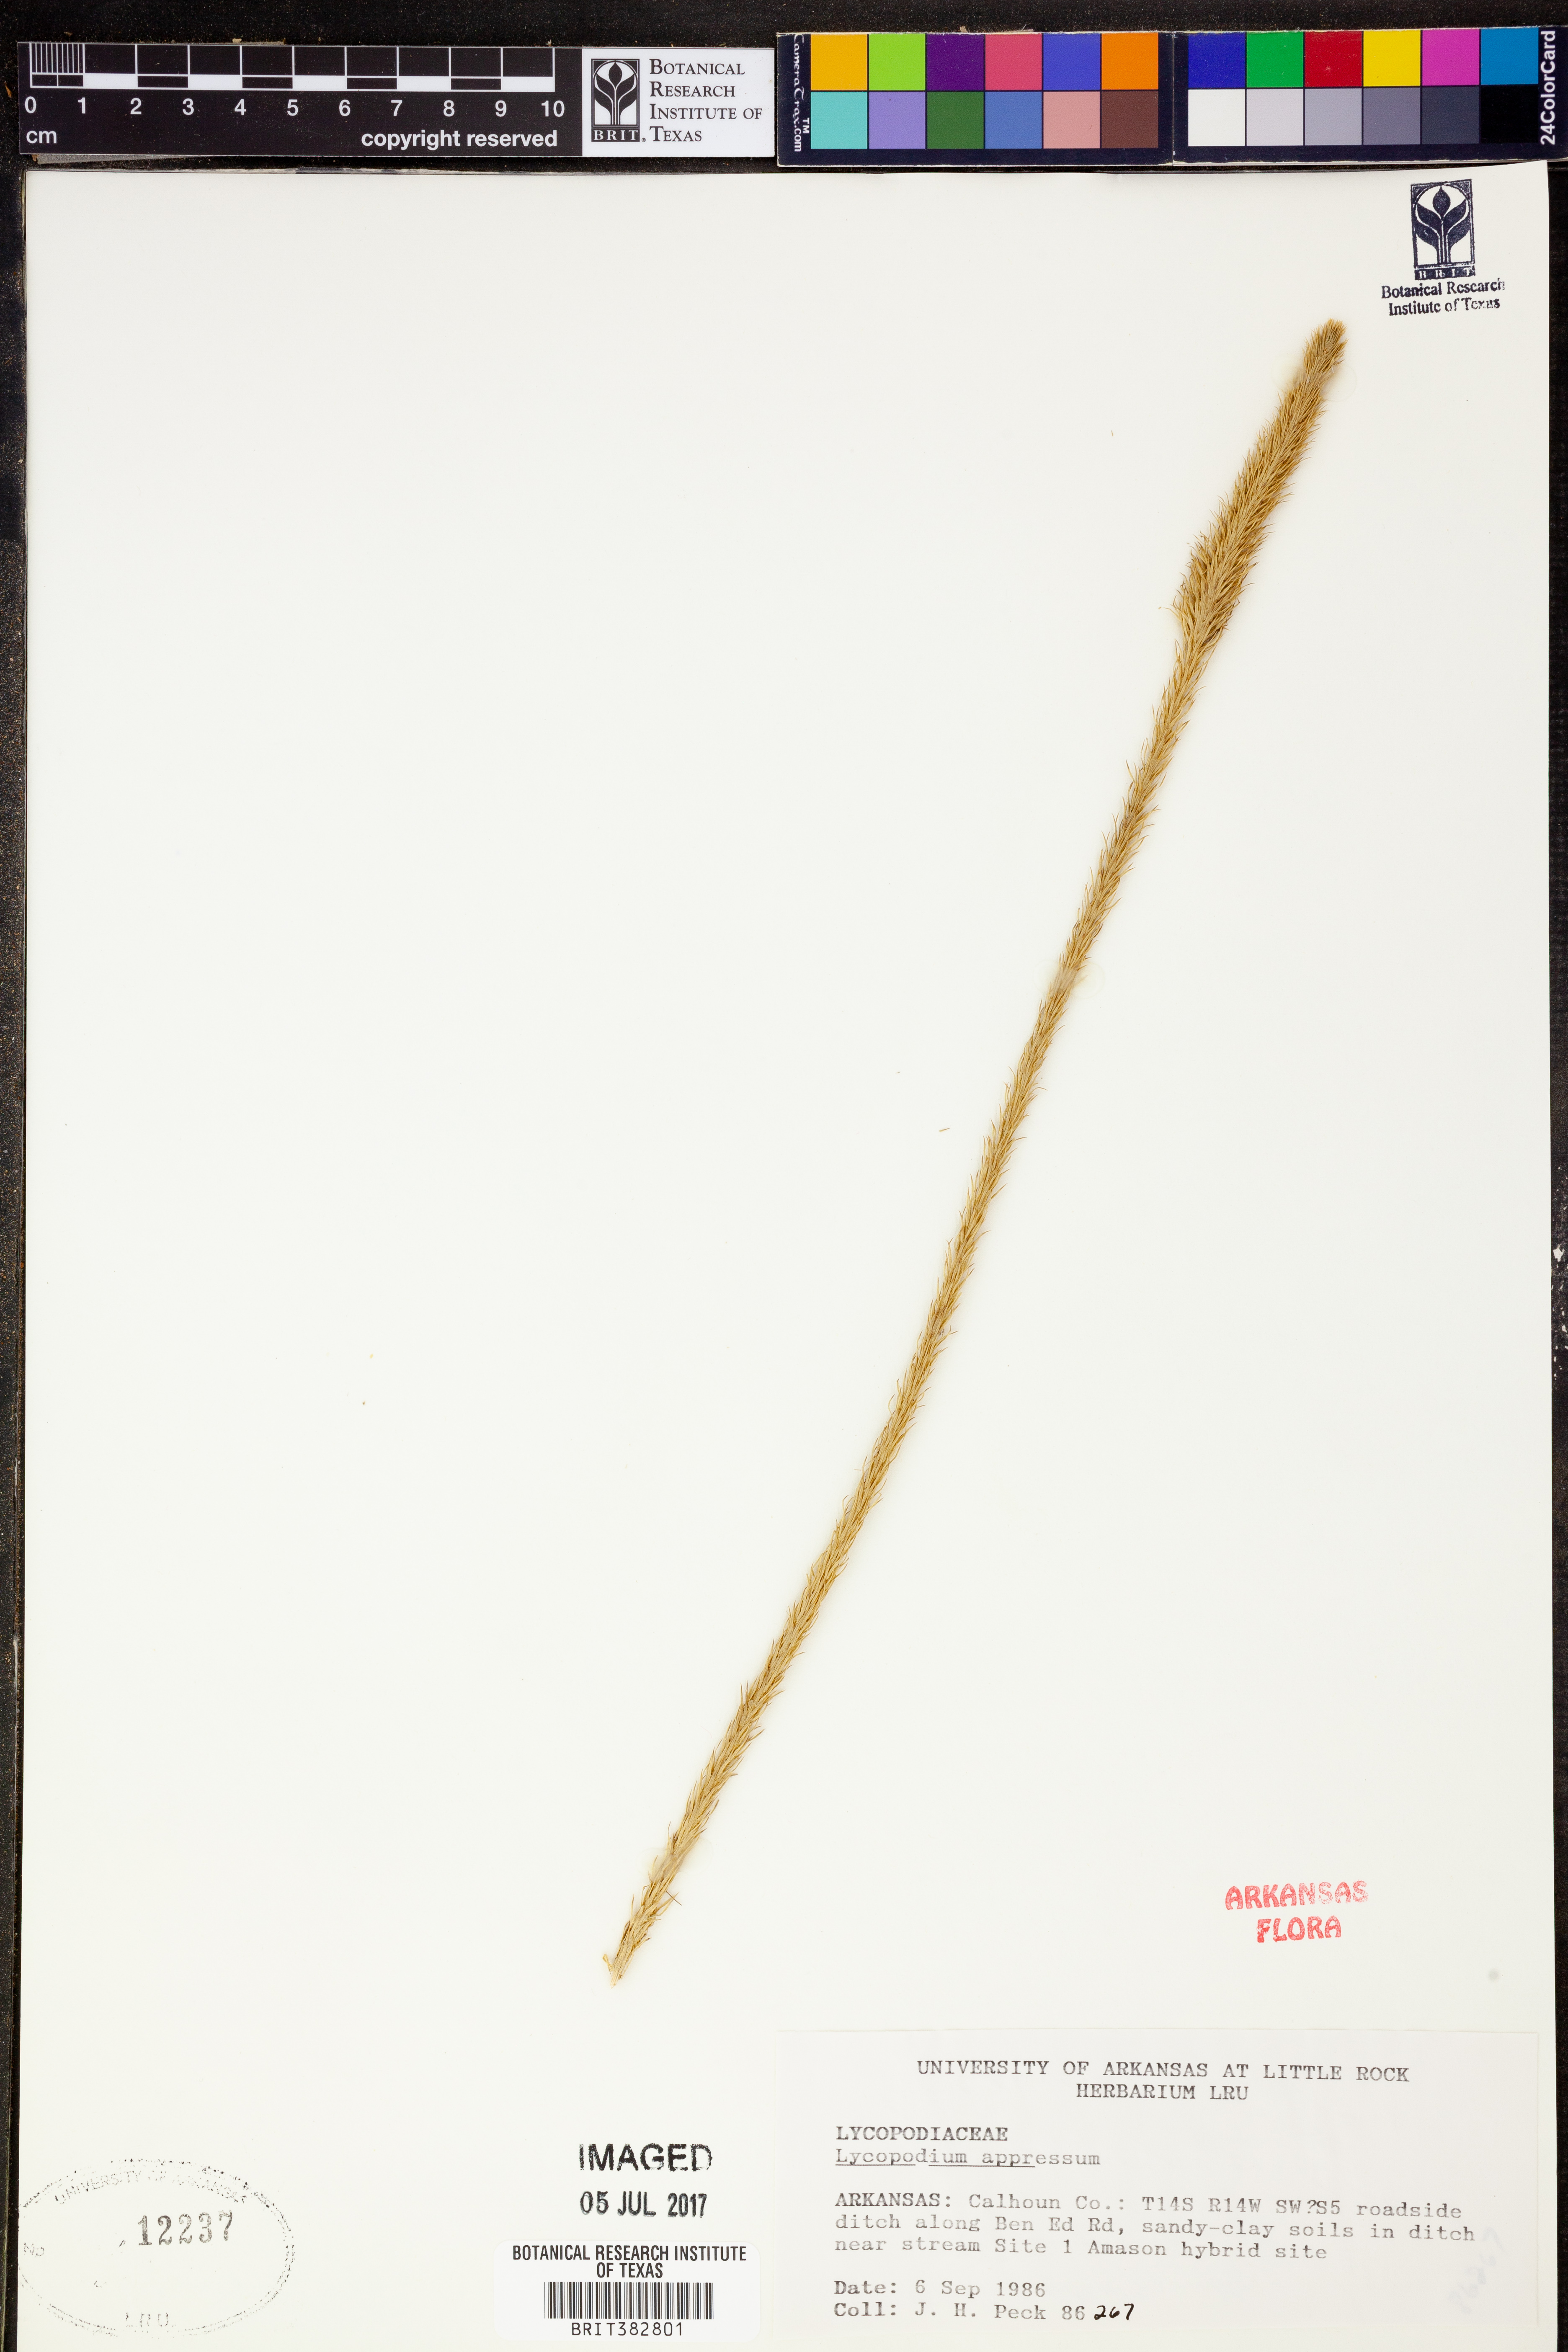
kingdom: Plantae
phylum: Tracheophyta
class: Lycopodiopsida
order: Lycopodiales
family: Lycopodiaceae
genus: Lycopodiella
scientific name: Lycopodiella appressa
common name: Appressed bog clubmoss
